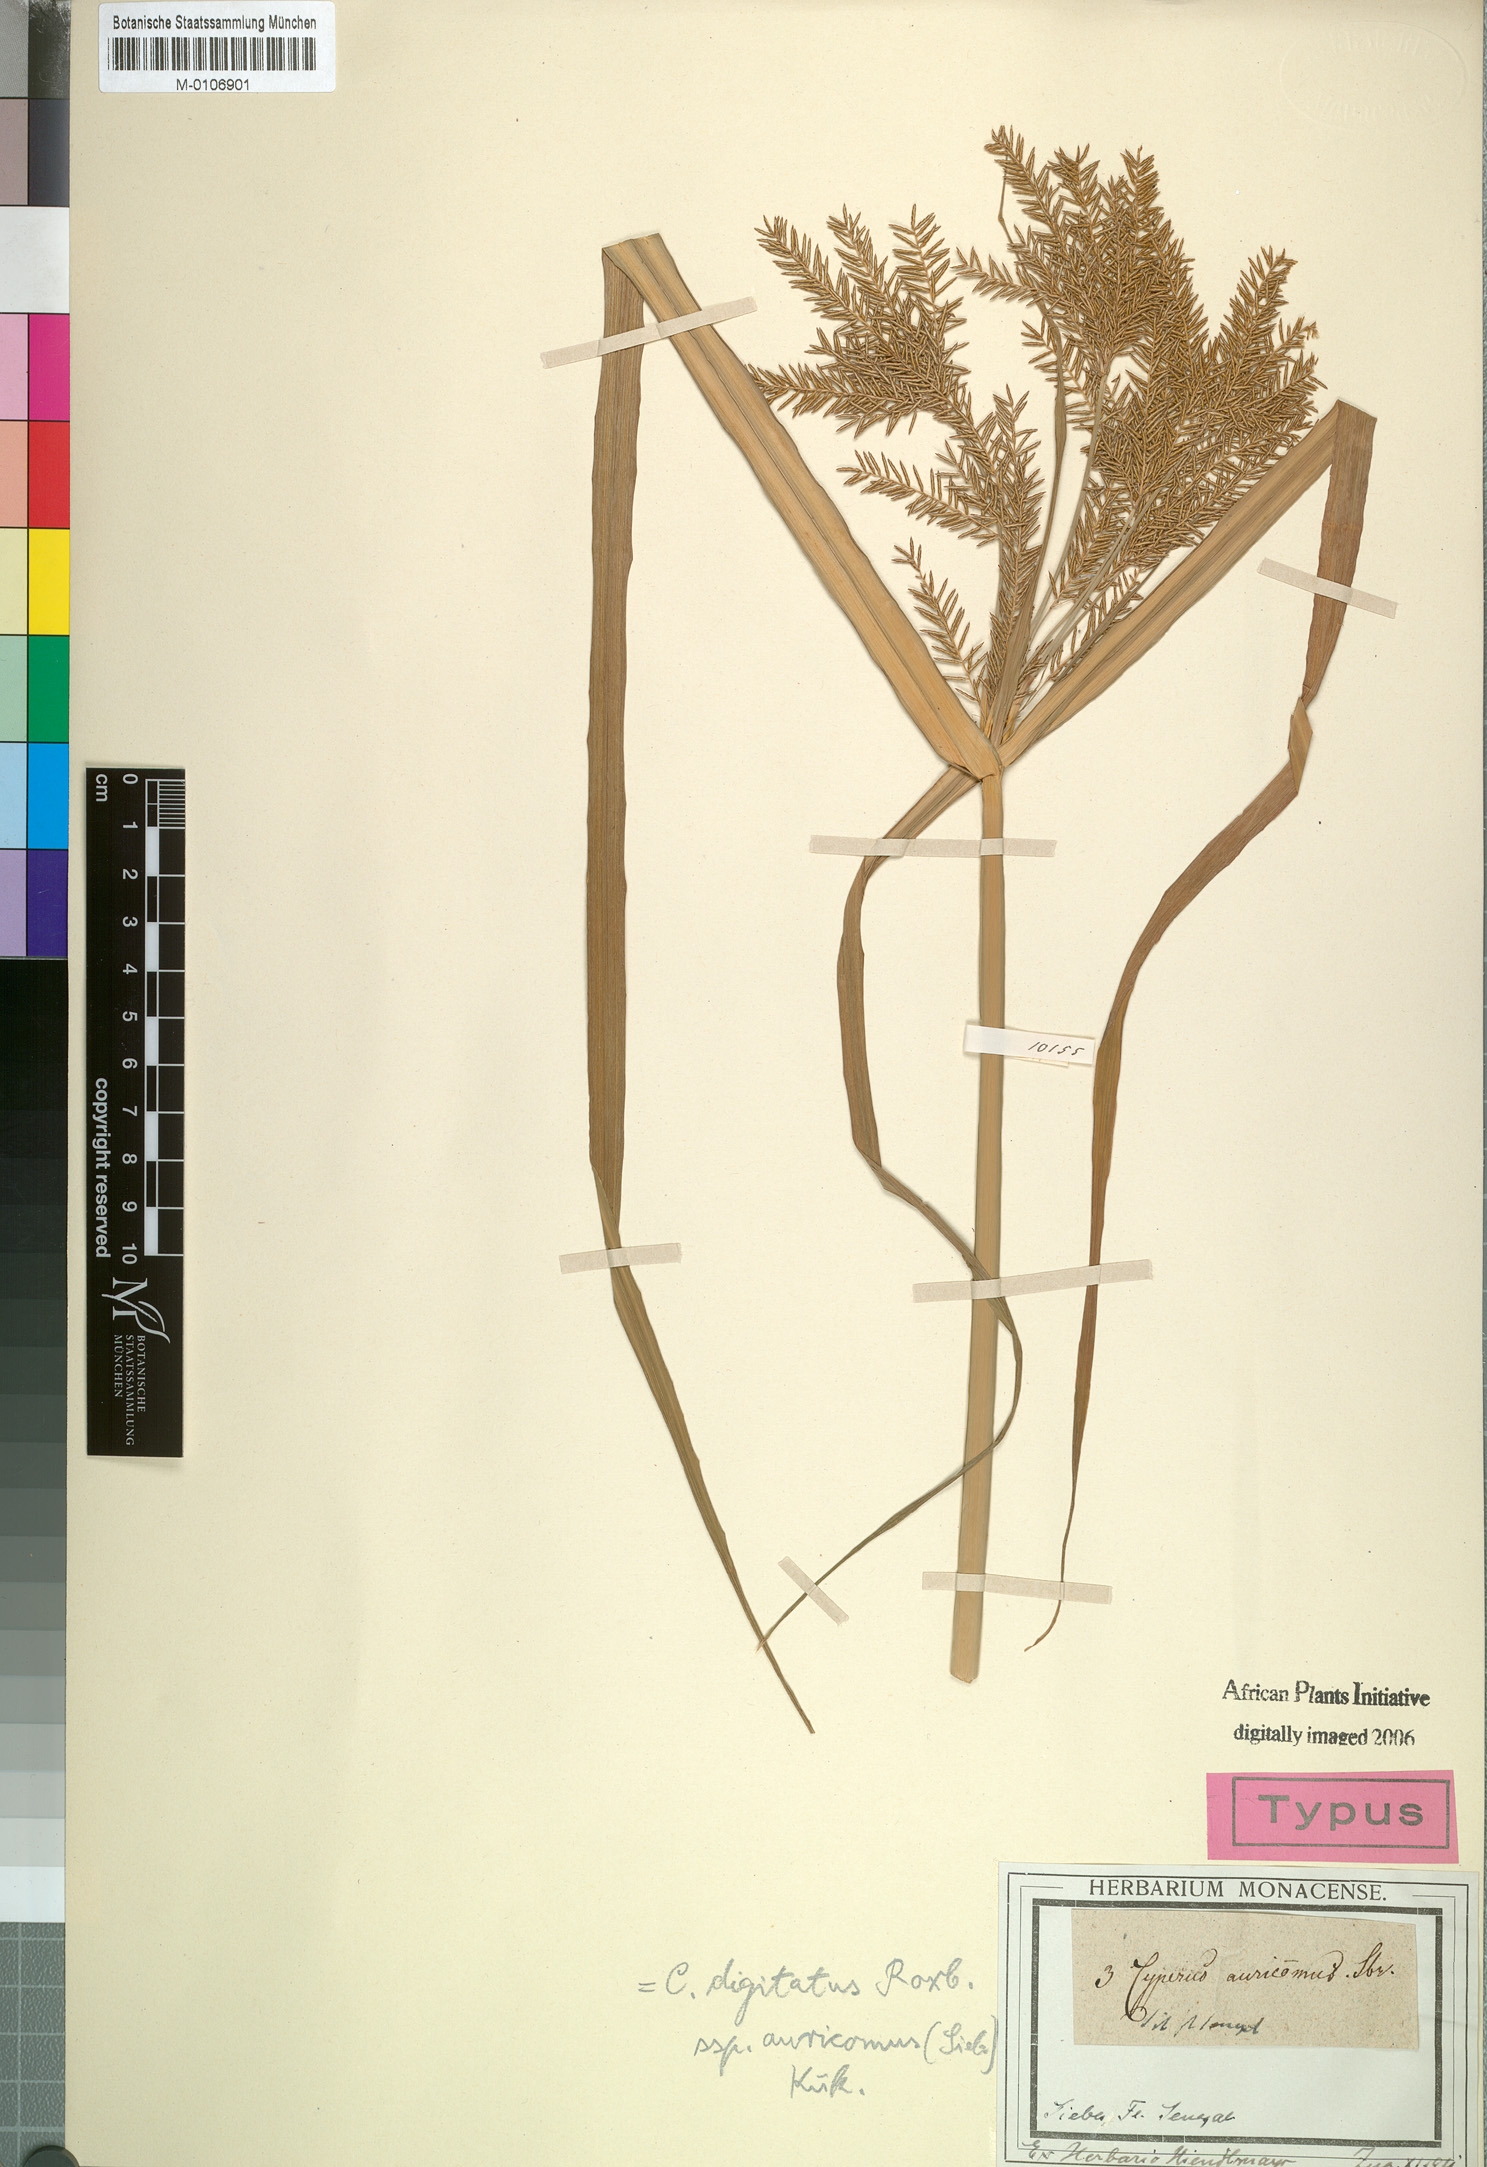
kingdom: Plantae
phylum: Tracheophyta
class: Liliopsida
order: Poales
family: Cyperaceae
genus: Cyperus
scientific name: Cyperus digitatus
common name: Finger flatsedge
